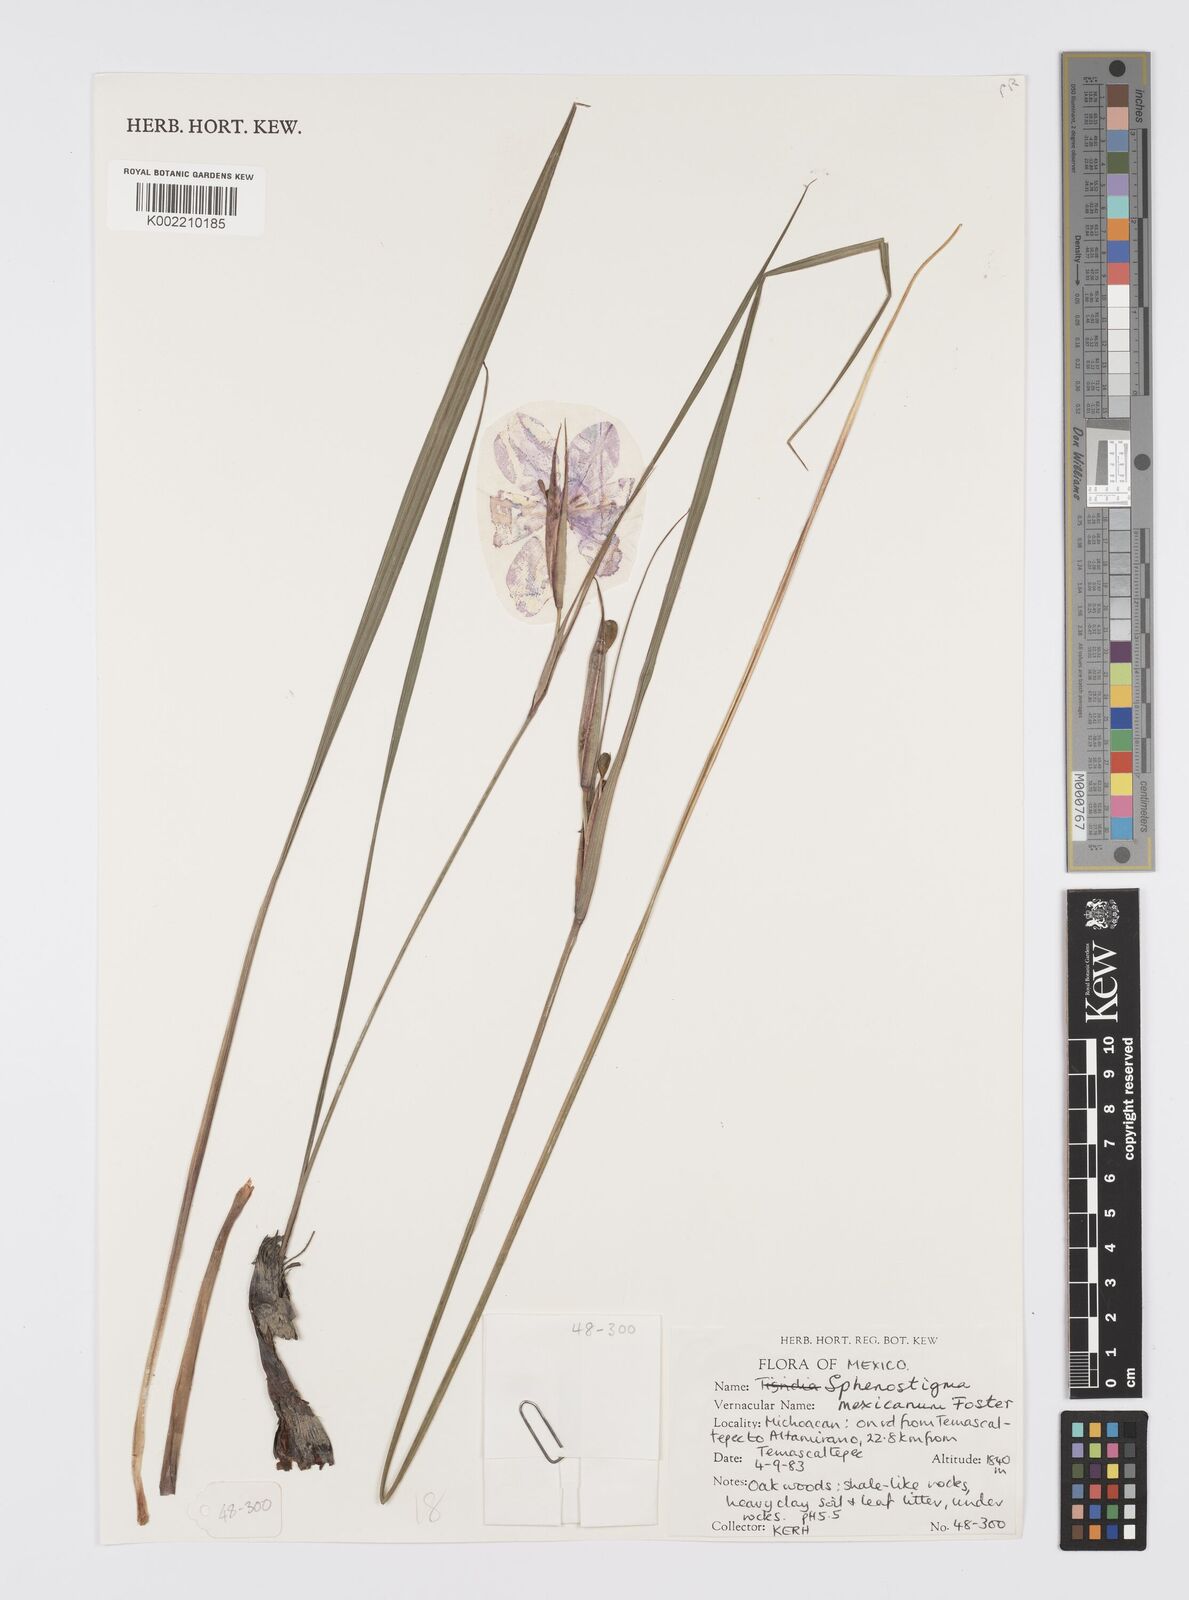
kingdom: Plantae
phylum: Tracheophyta
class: Liliopsida
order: Asparagales
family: Iridaceae
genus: Gelasine
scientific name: Gelasine
